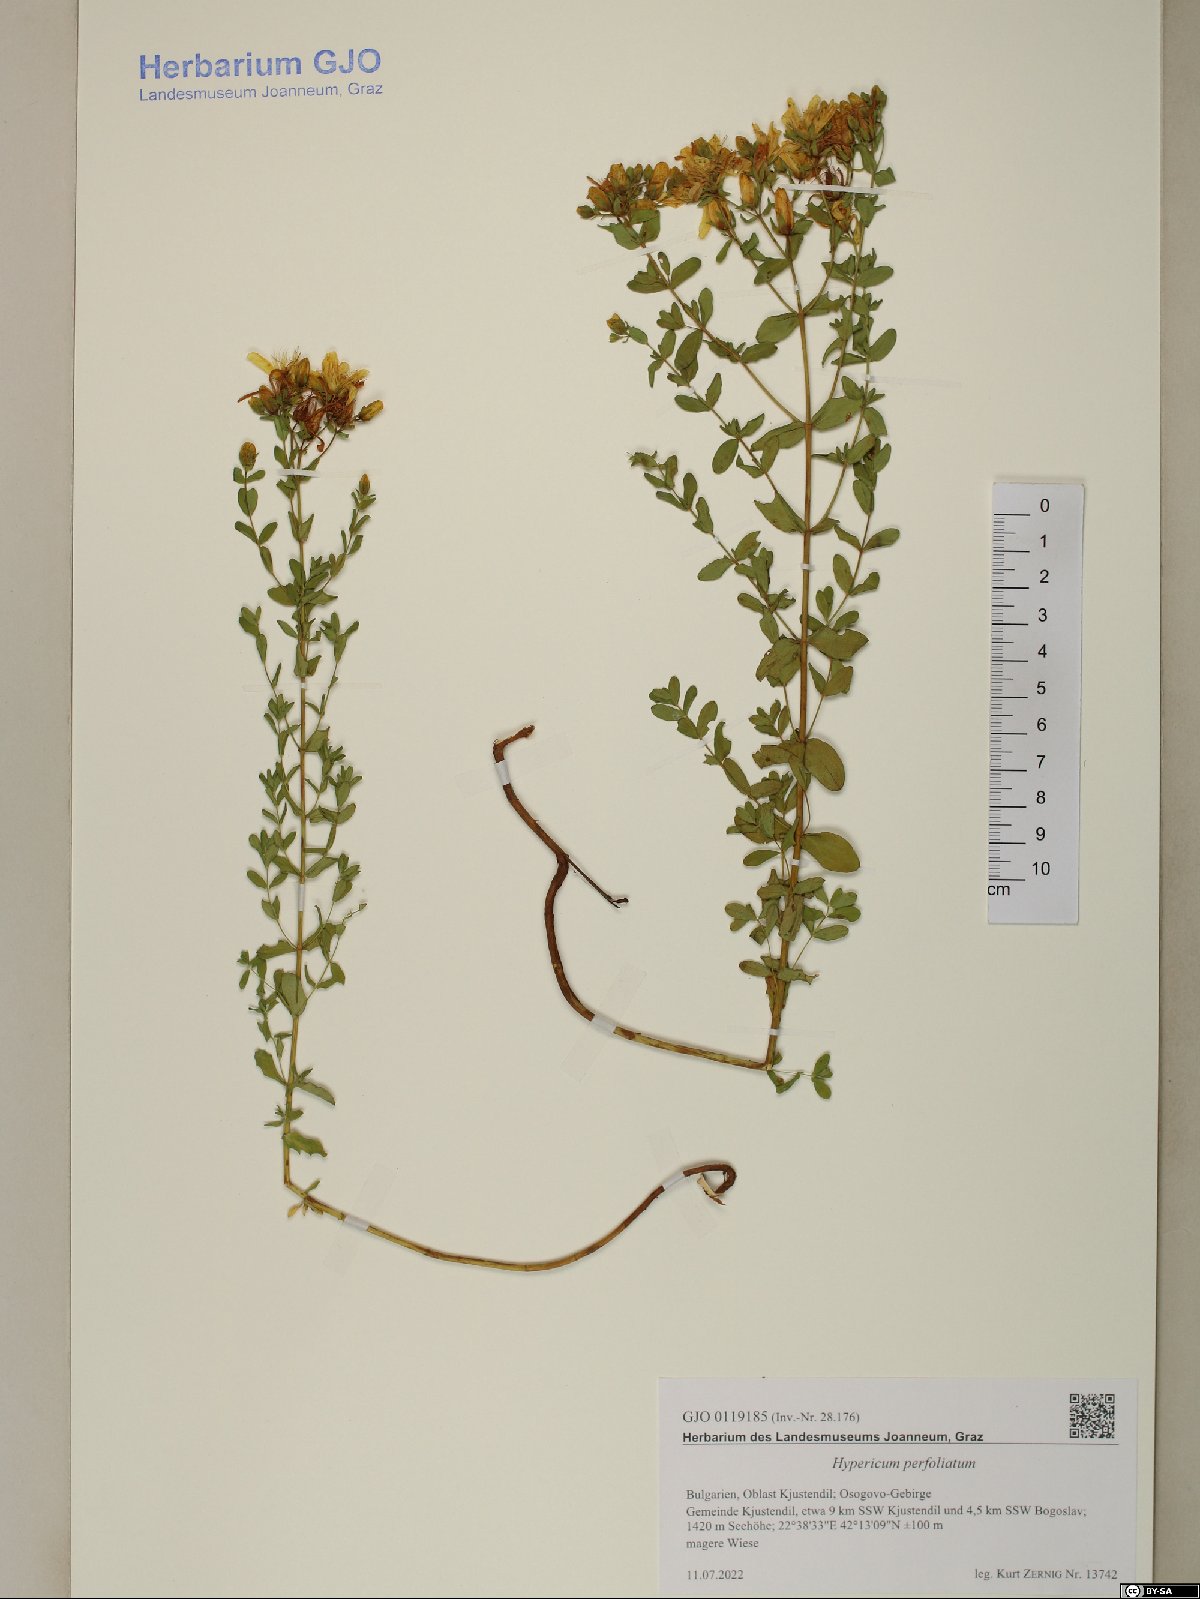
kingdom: Plantae
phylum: Tracheophyta
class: Magnoliopsida
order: Malpighiales
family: Hypericaceae
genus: Hypericum
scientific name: Hypericum perfoliatum
